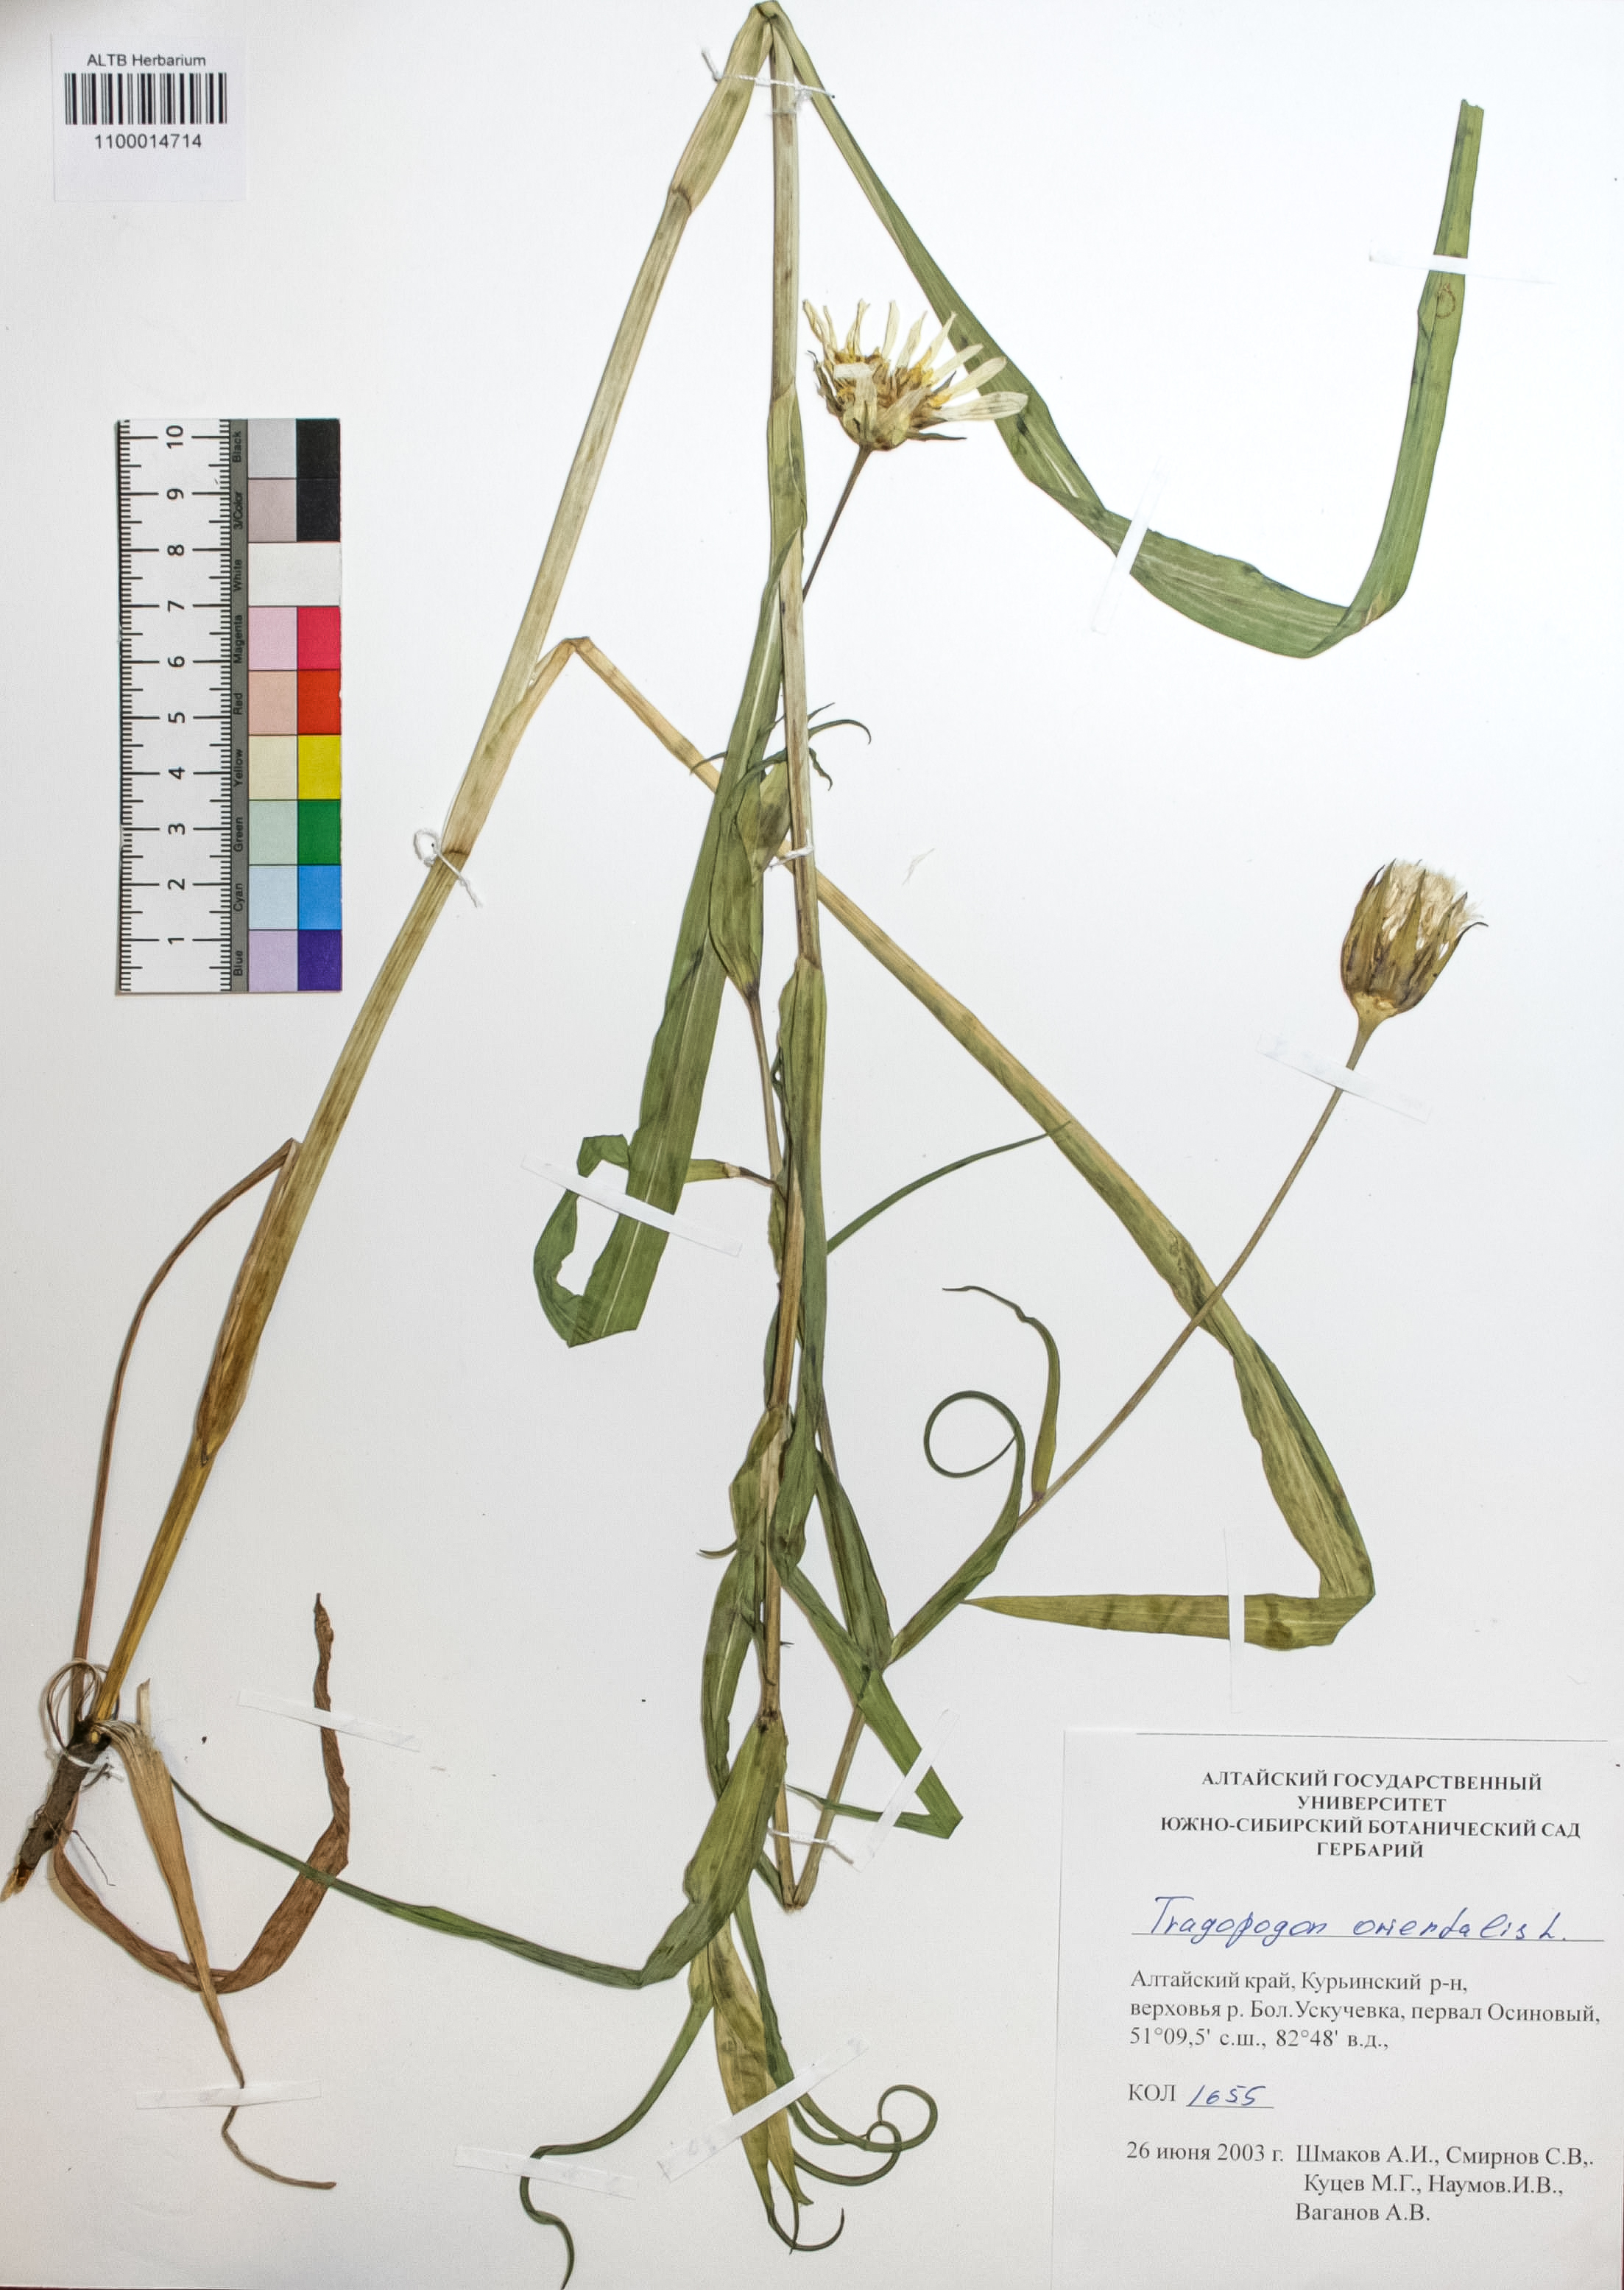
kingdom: Plantae
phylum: Tracheophyta
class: Magnoliopsida
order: Asterales
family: Asteraceae
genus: Tragopogon
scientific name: Tragopogon orientalis
